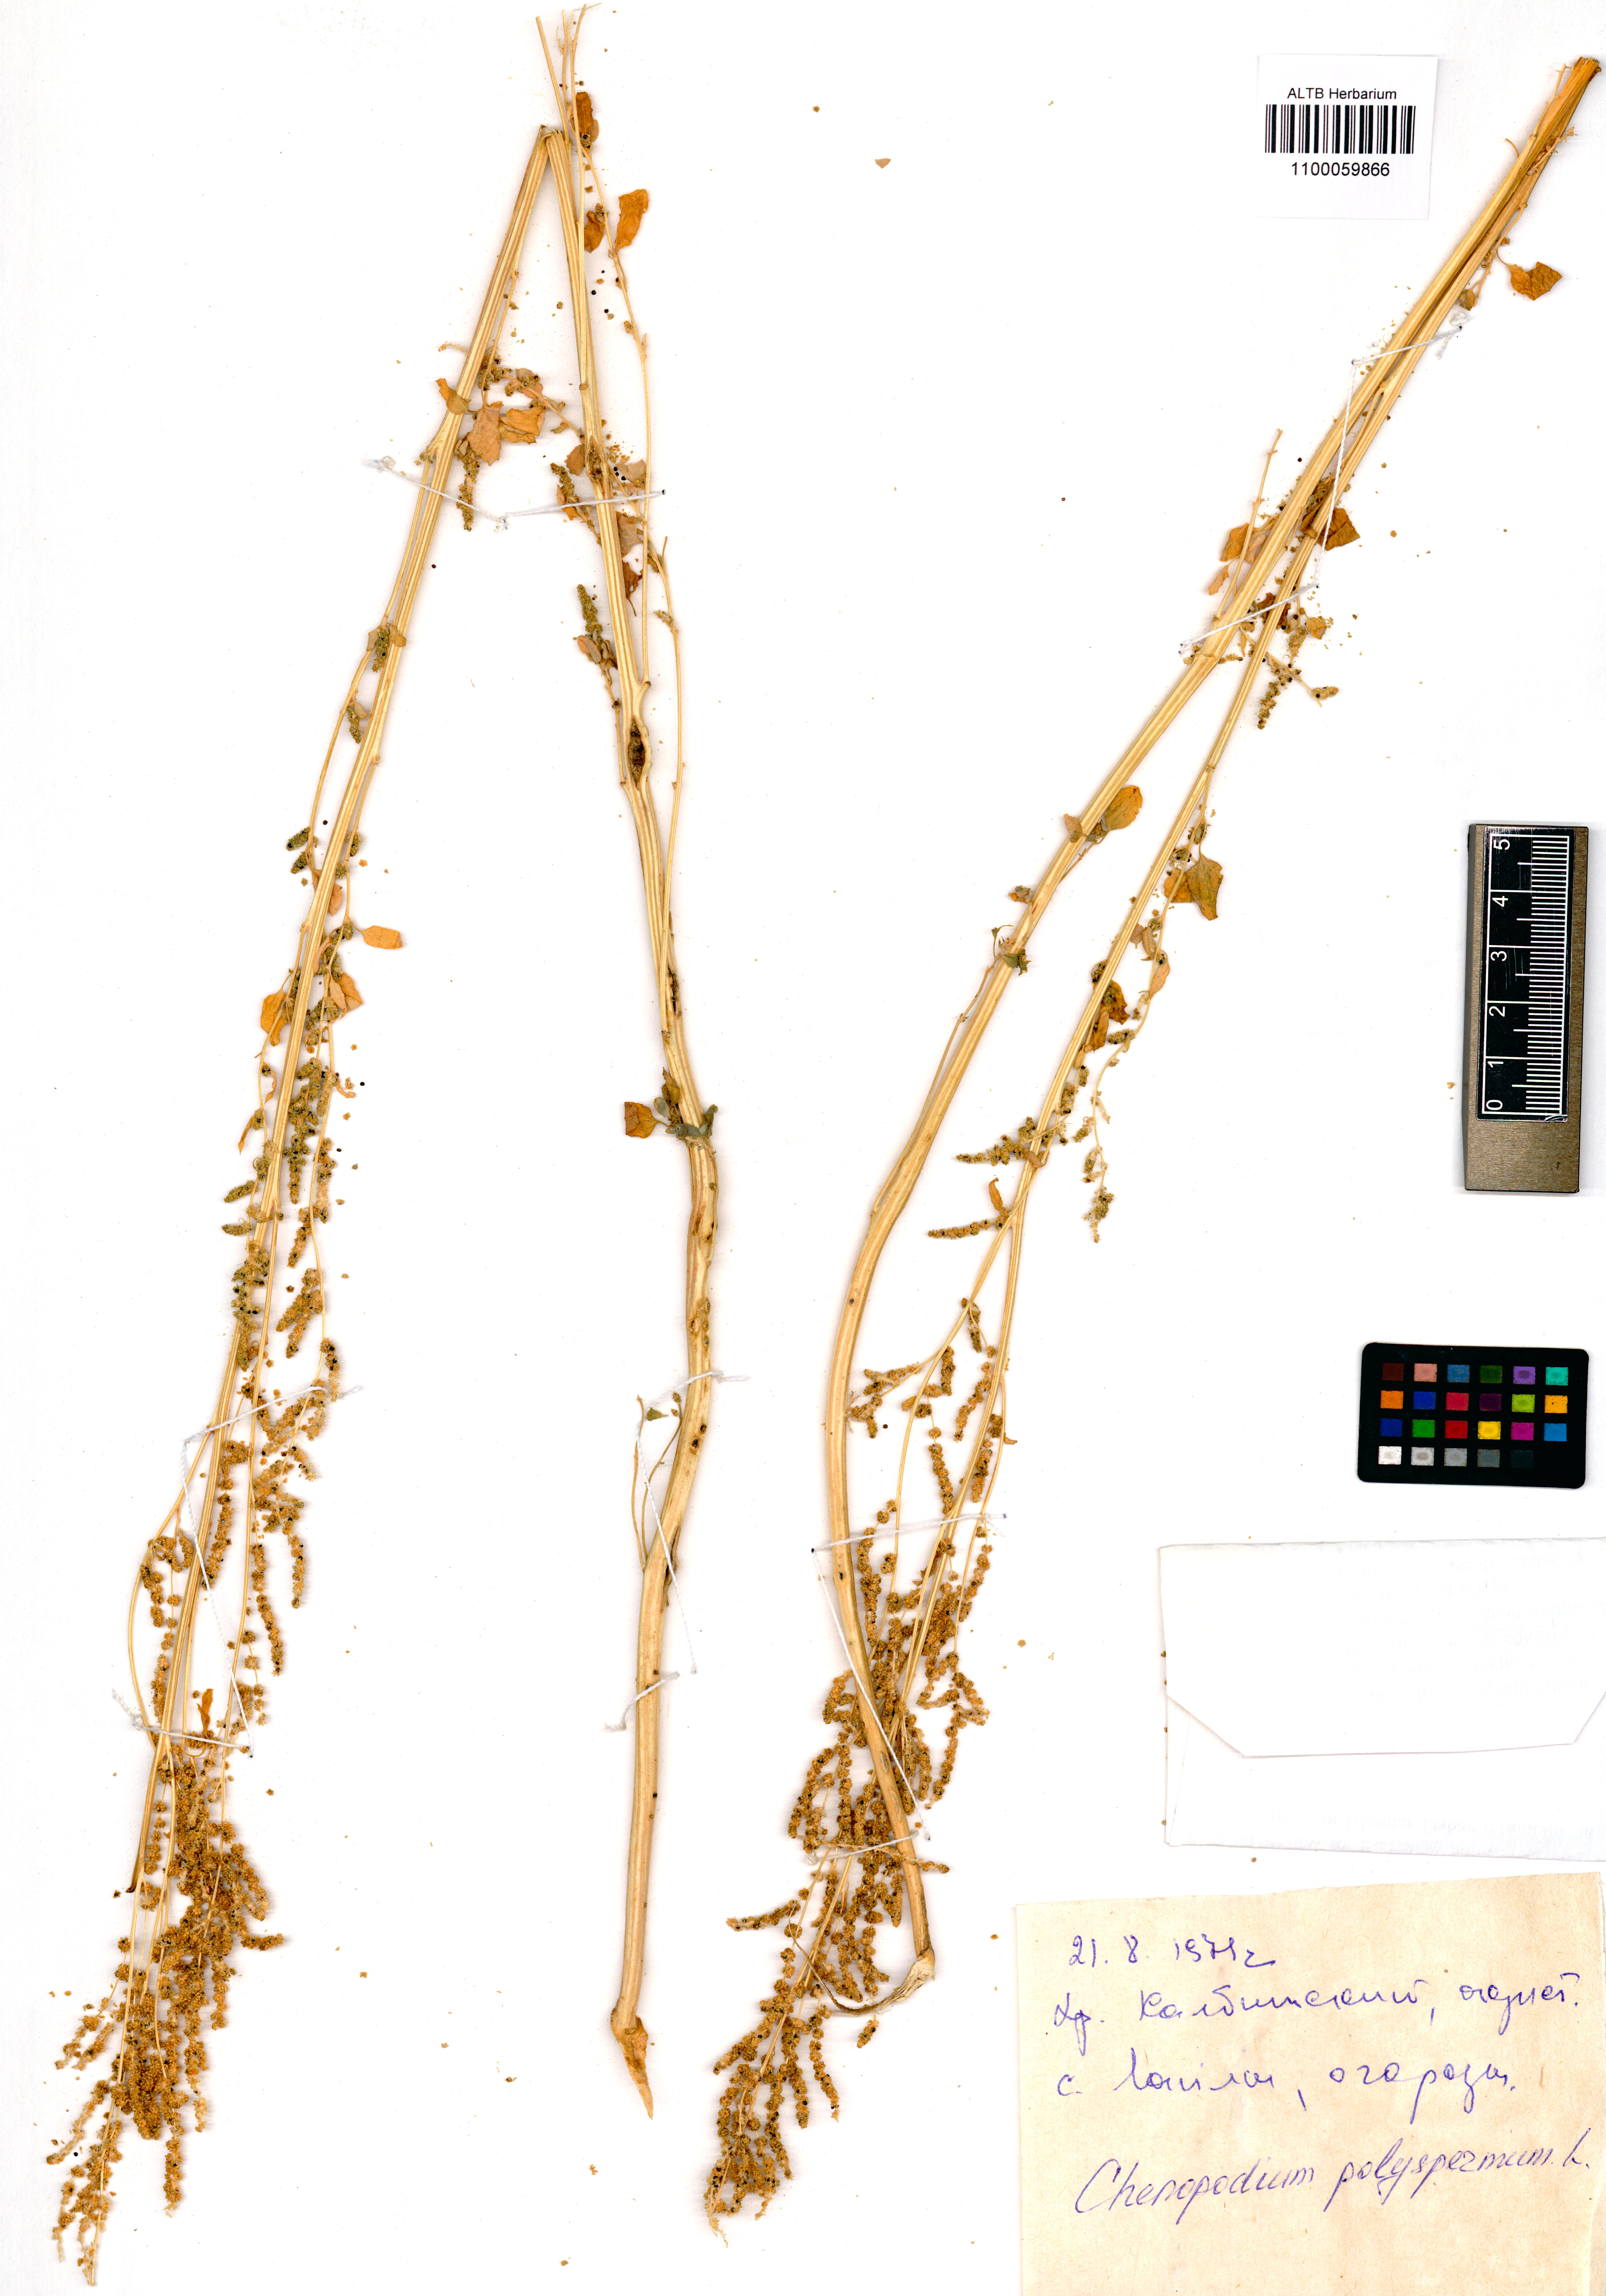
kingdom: Plantae
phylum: Tracheophyta
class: Magnoliopsida
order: Caryophyllales
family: Amaranthaceae
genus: Lipandra
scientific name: Lipandra polysperma
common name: Many-seed goosefoot
